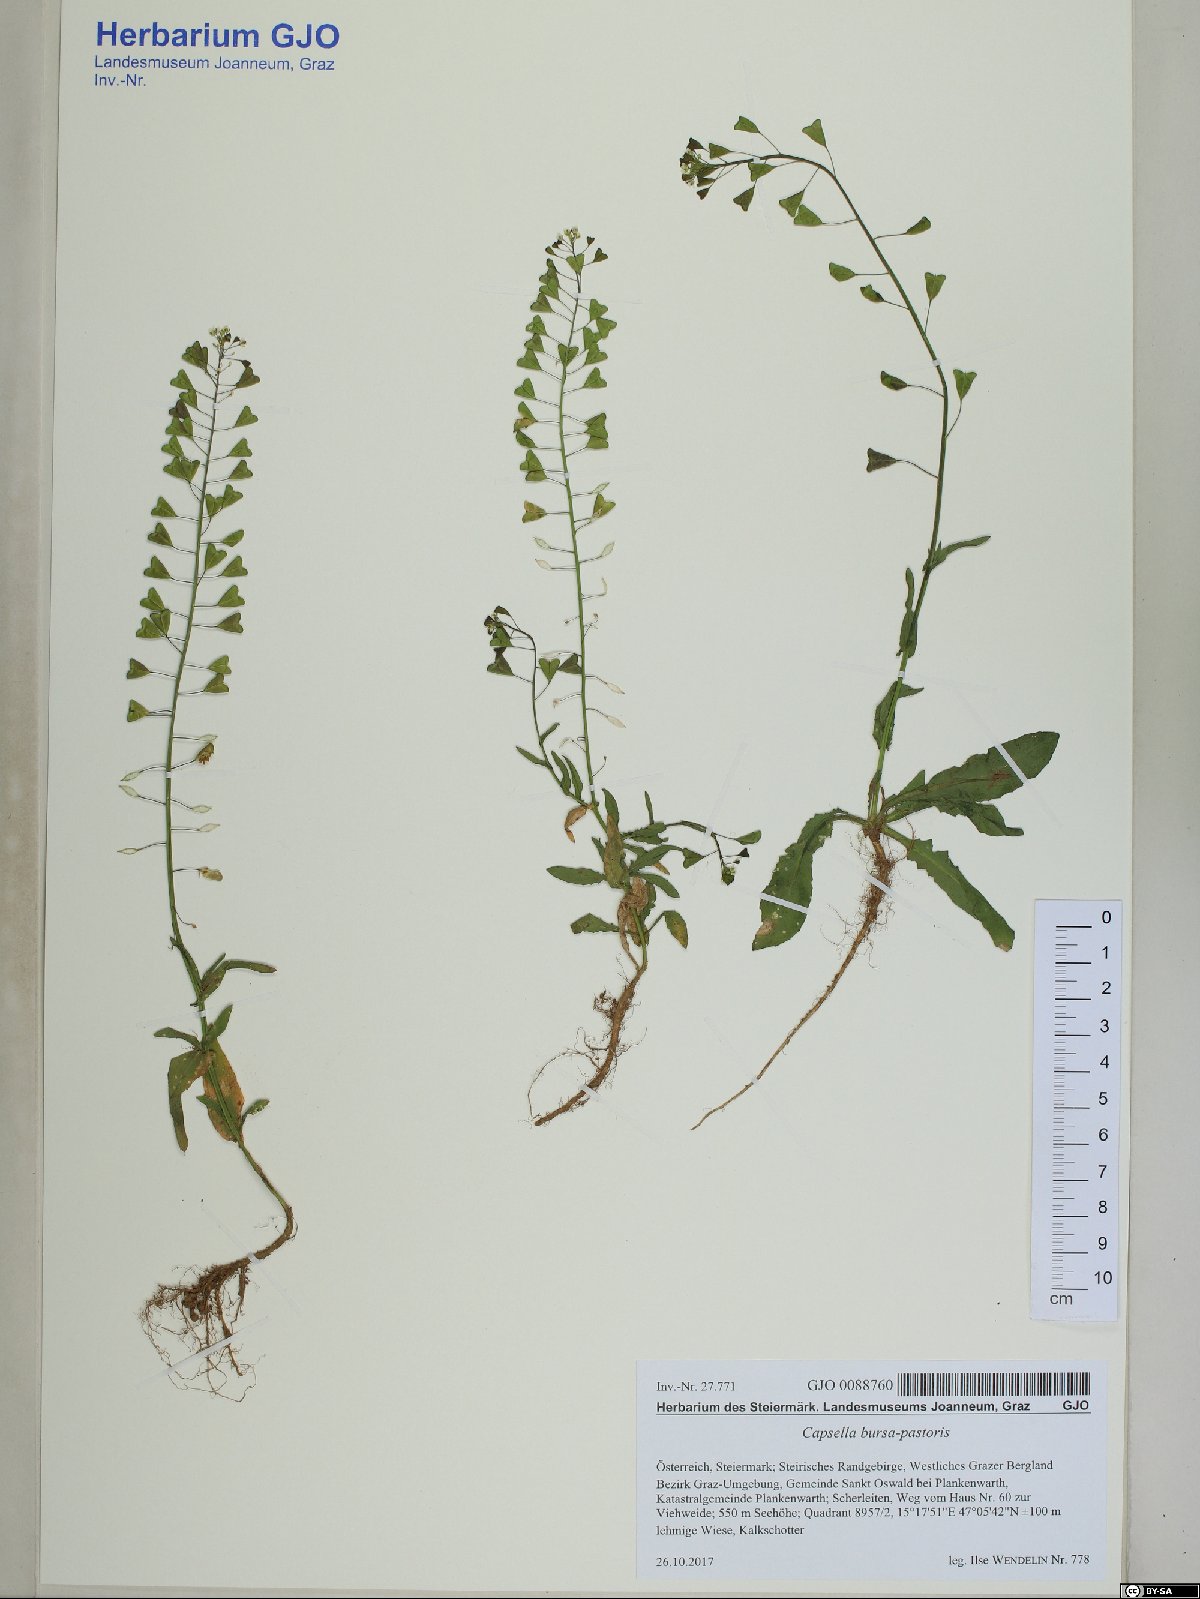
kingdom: Plantae
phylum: Tracheophyta
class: Magnoliopsida
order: Brassicales
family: Brassicaceae
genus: Capsella
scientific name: Capsella bursa-pastoris
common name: Shepherd's purse
